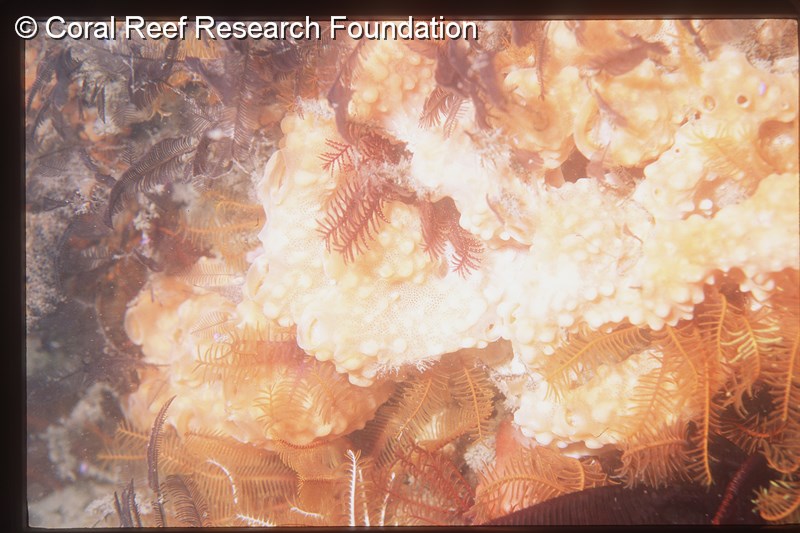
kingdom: Animalia
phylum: Chordata
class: Ascidiacea
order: Aplousobranchia
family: Didemnidae
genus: Trididemnum
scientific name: Trididemnum
